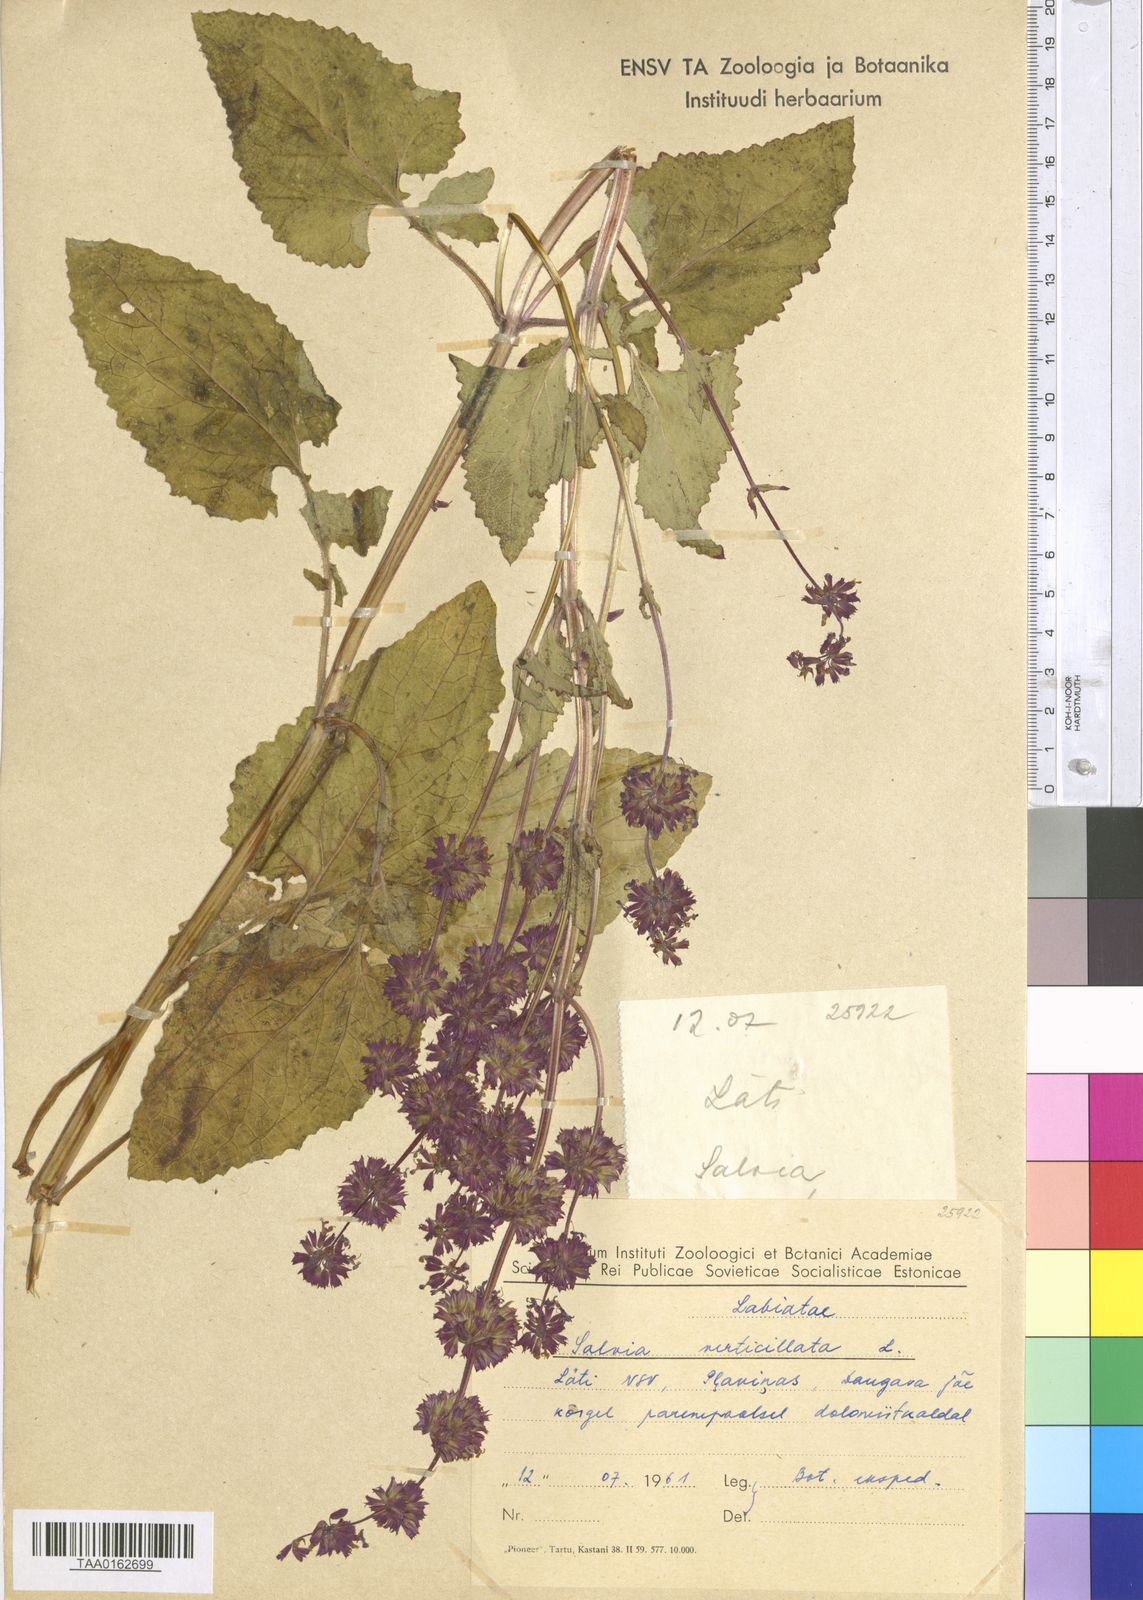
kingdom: Plantae
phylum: Tracheophyta
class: Magnoliopsida
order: Lamiales
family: Lamiaceae
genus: Salvia
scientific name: Salvia verticillata
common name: Whorled clary
